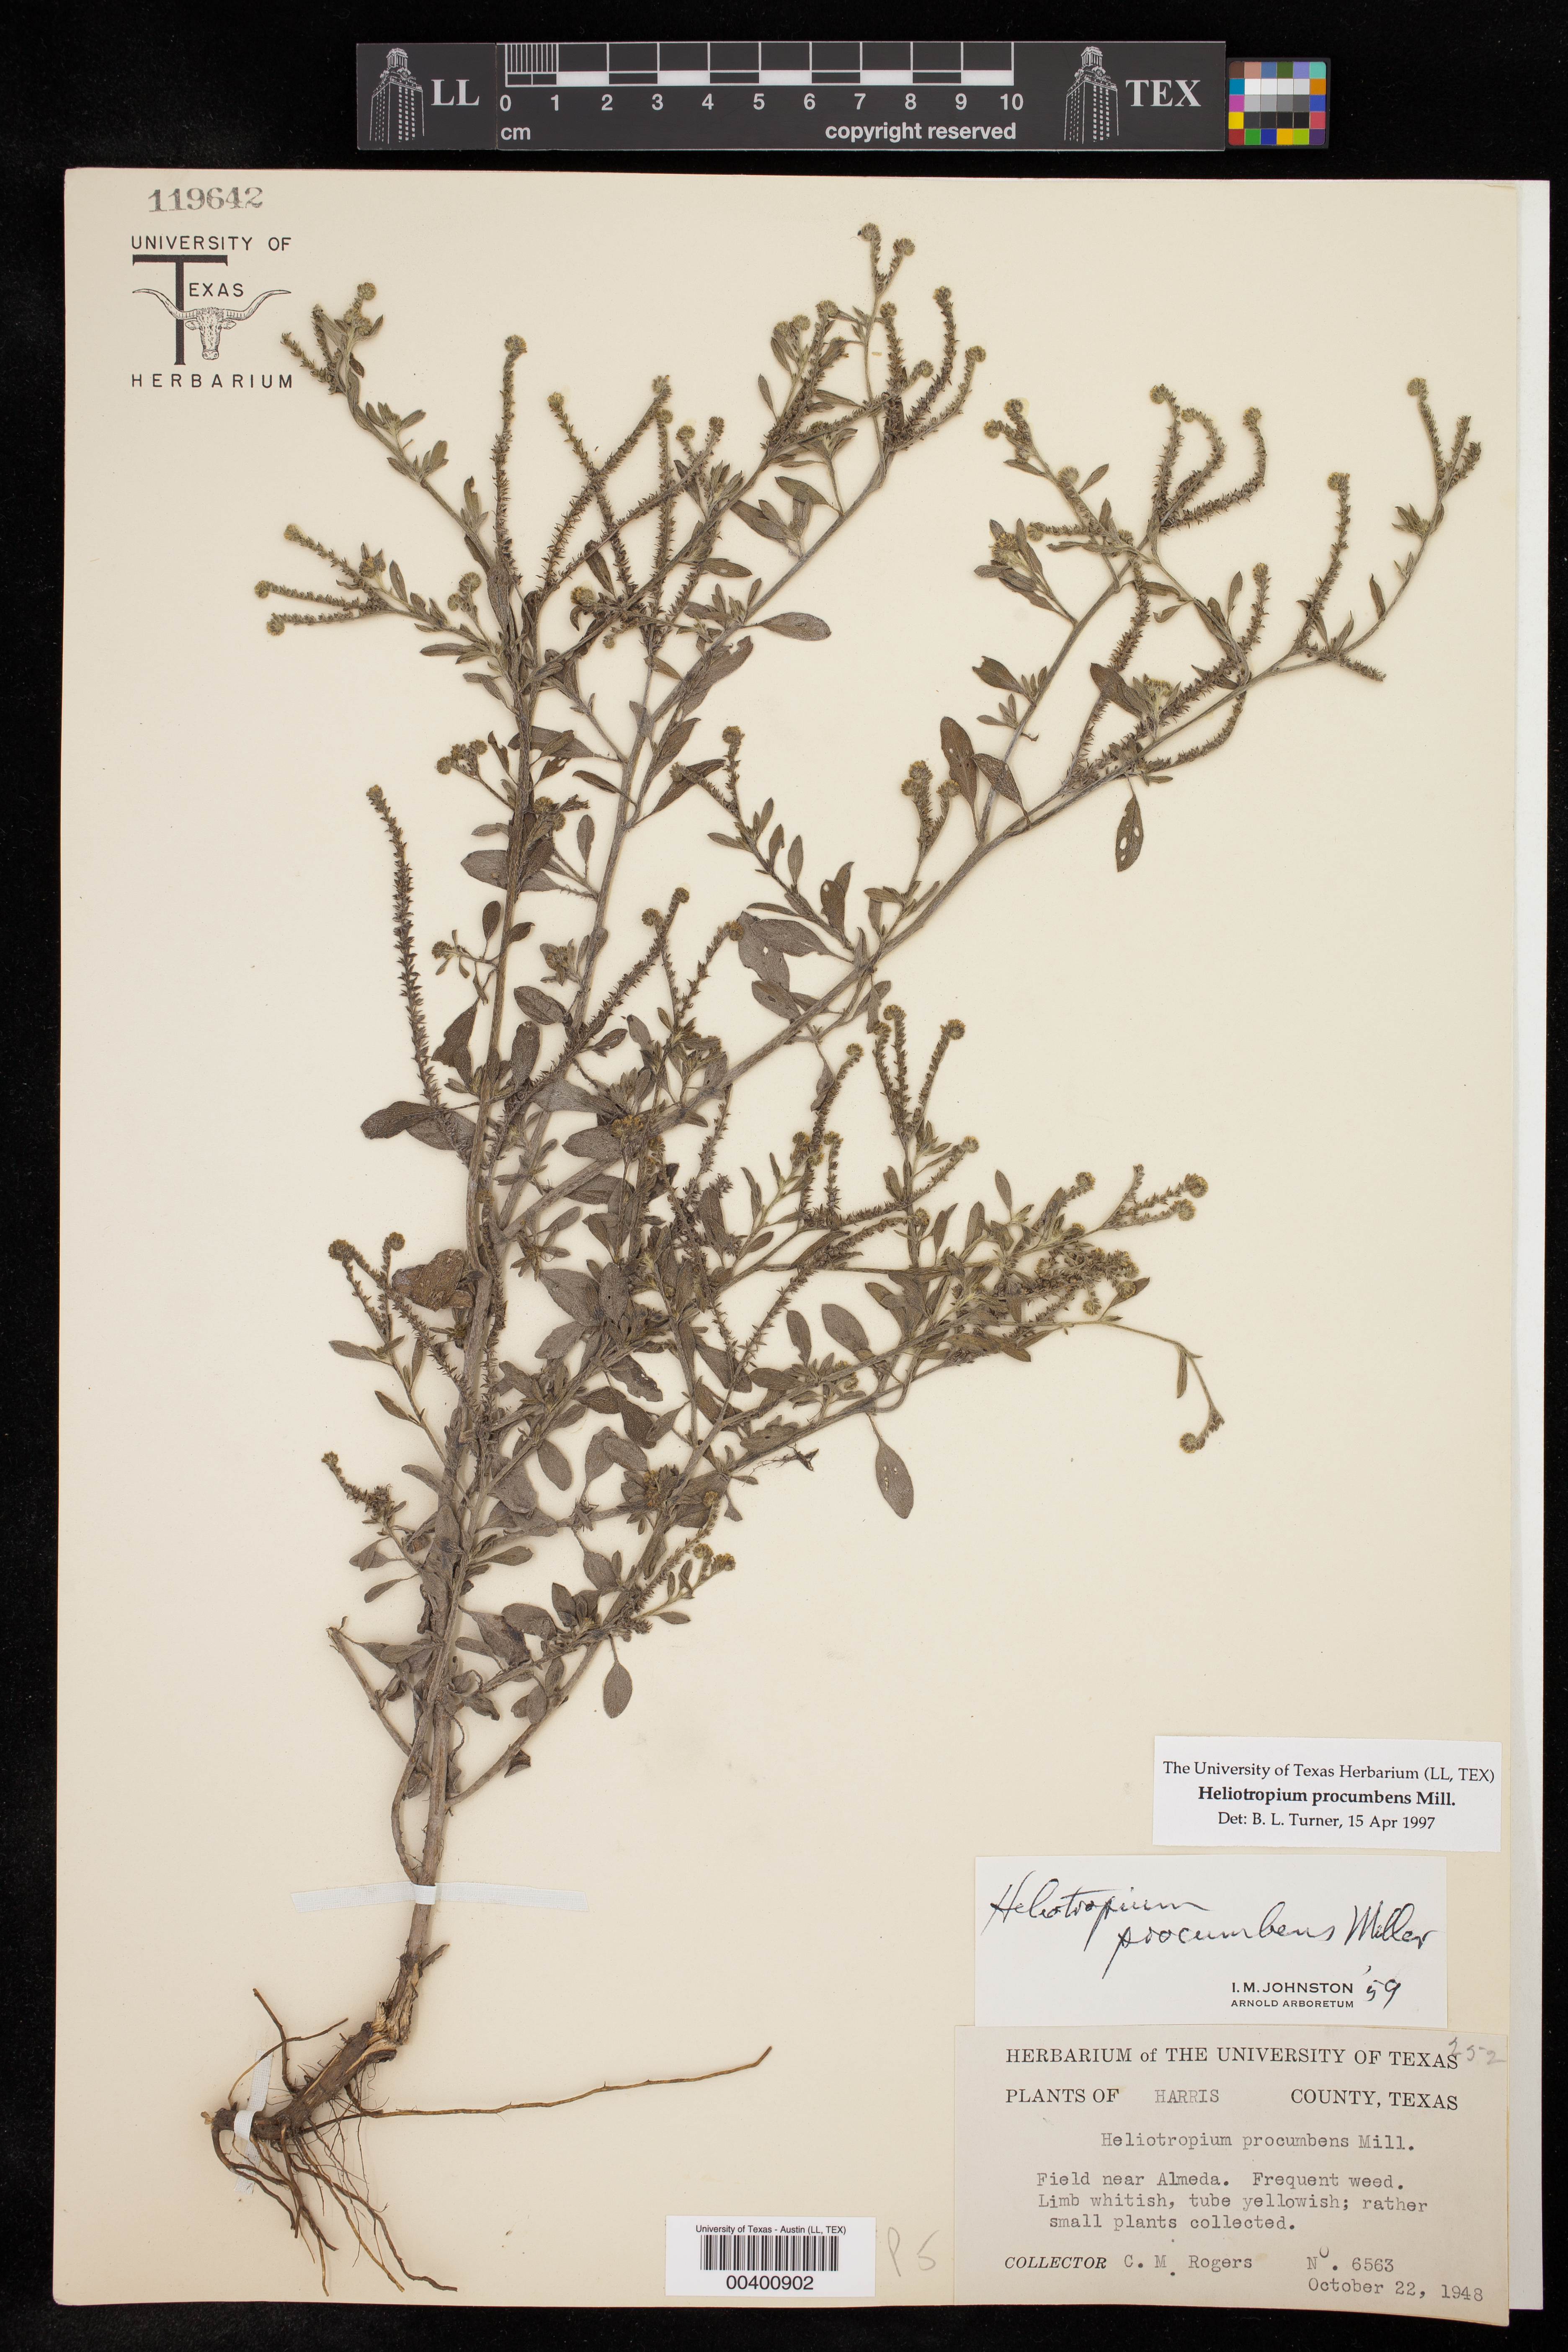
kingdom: Plantae
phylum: Tracheophyta
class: Magnoliopsida
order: Boraginales
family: Heliotropiaceae
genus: Euploca
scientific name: Euploca procumbens
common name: Fourspike heliotrope
